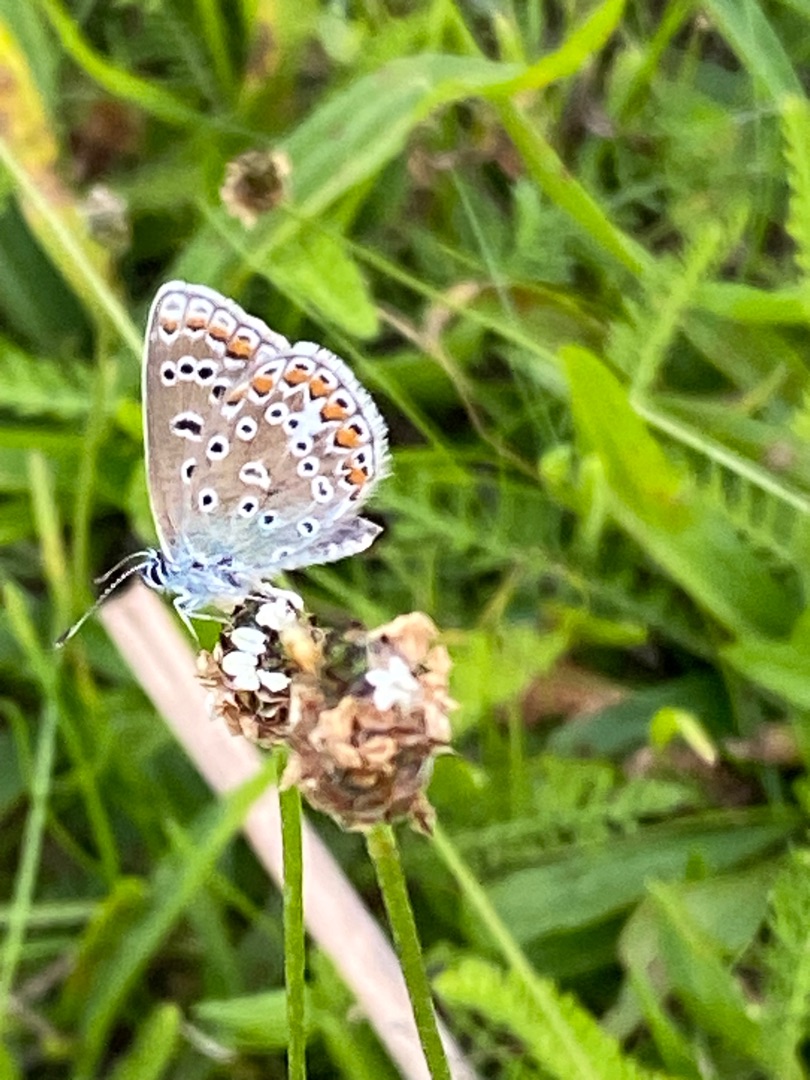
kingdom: Animalia
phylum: Arthropoda
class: Insecta
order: Lepidoptera
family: Lycaenidae
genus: Polyommatus
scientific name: Polyommatus icarus
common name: Almindelig blåfugl
